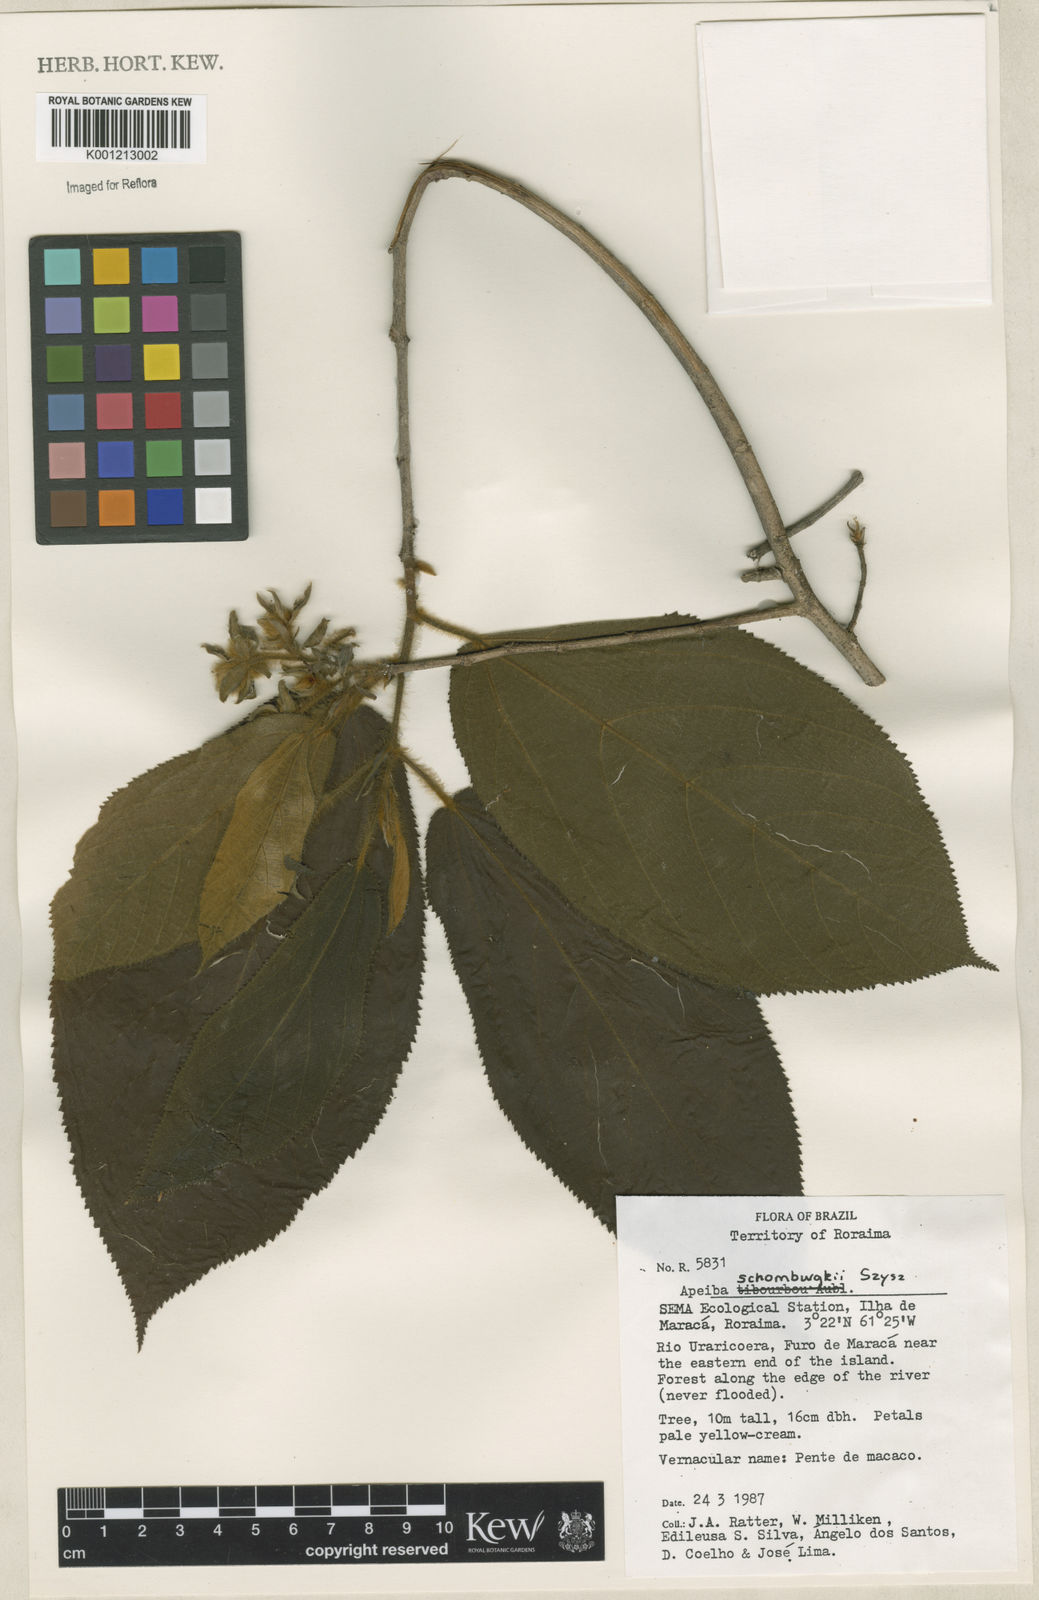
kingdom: Plantae
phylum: Tracheophyta
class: Magnoliopsida
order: Malvales
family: Malvaceae
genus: Apeiba
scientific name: Apeiba schomburgkii
